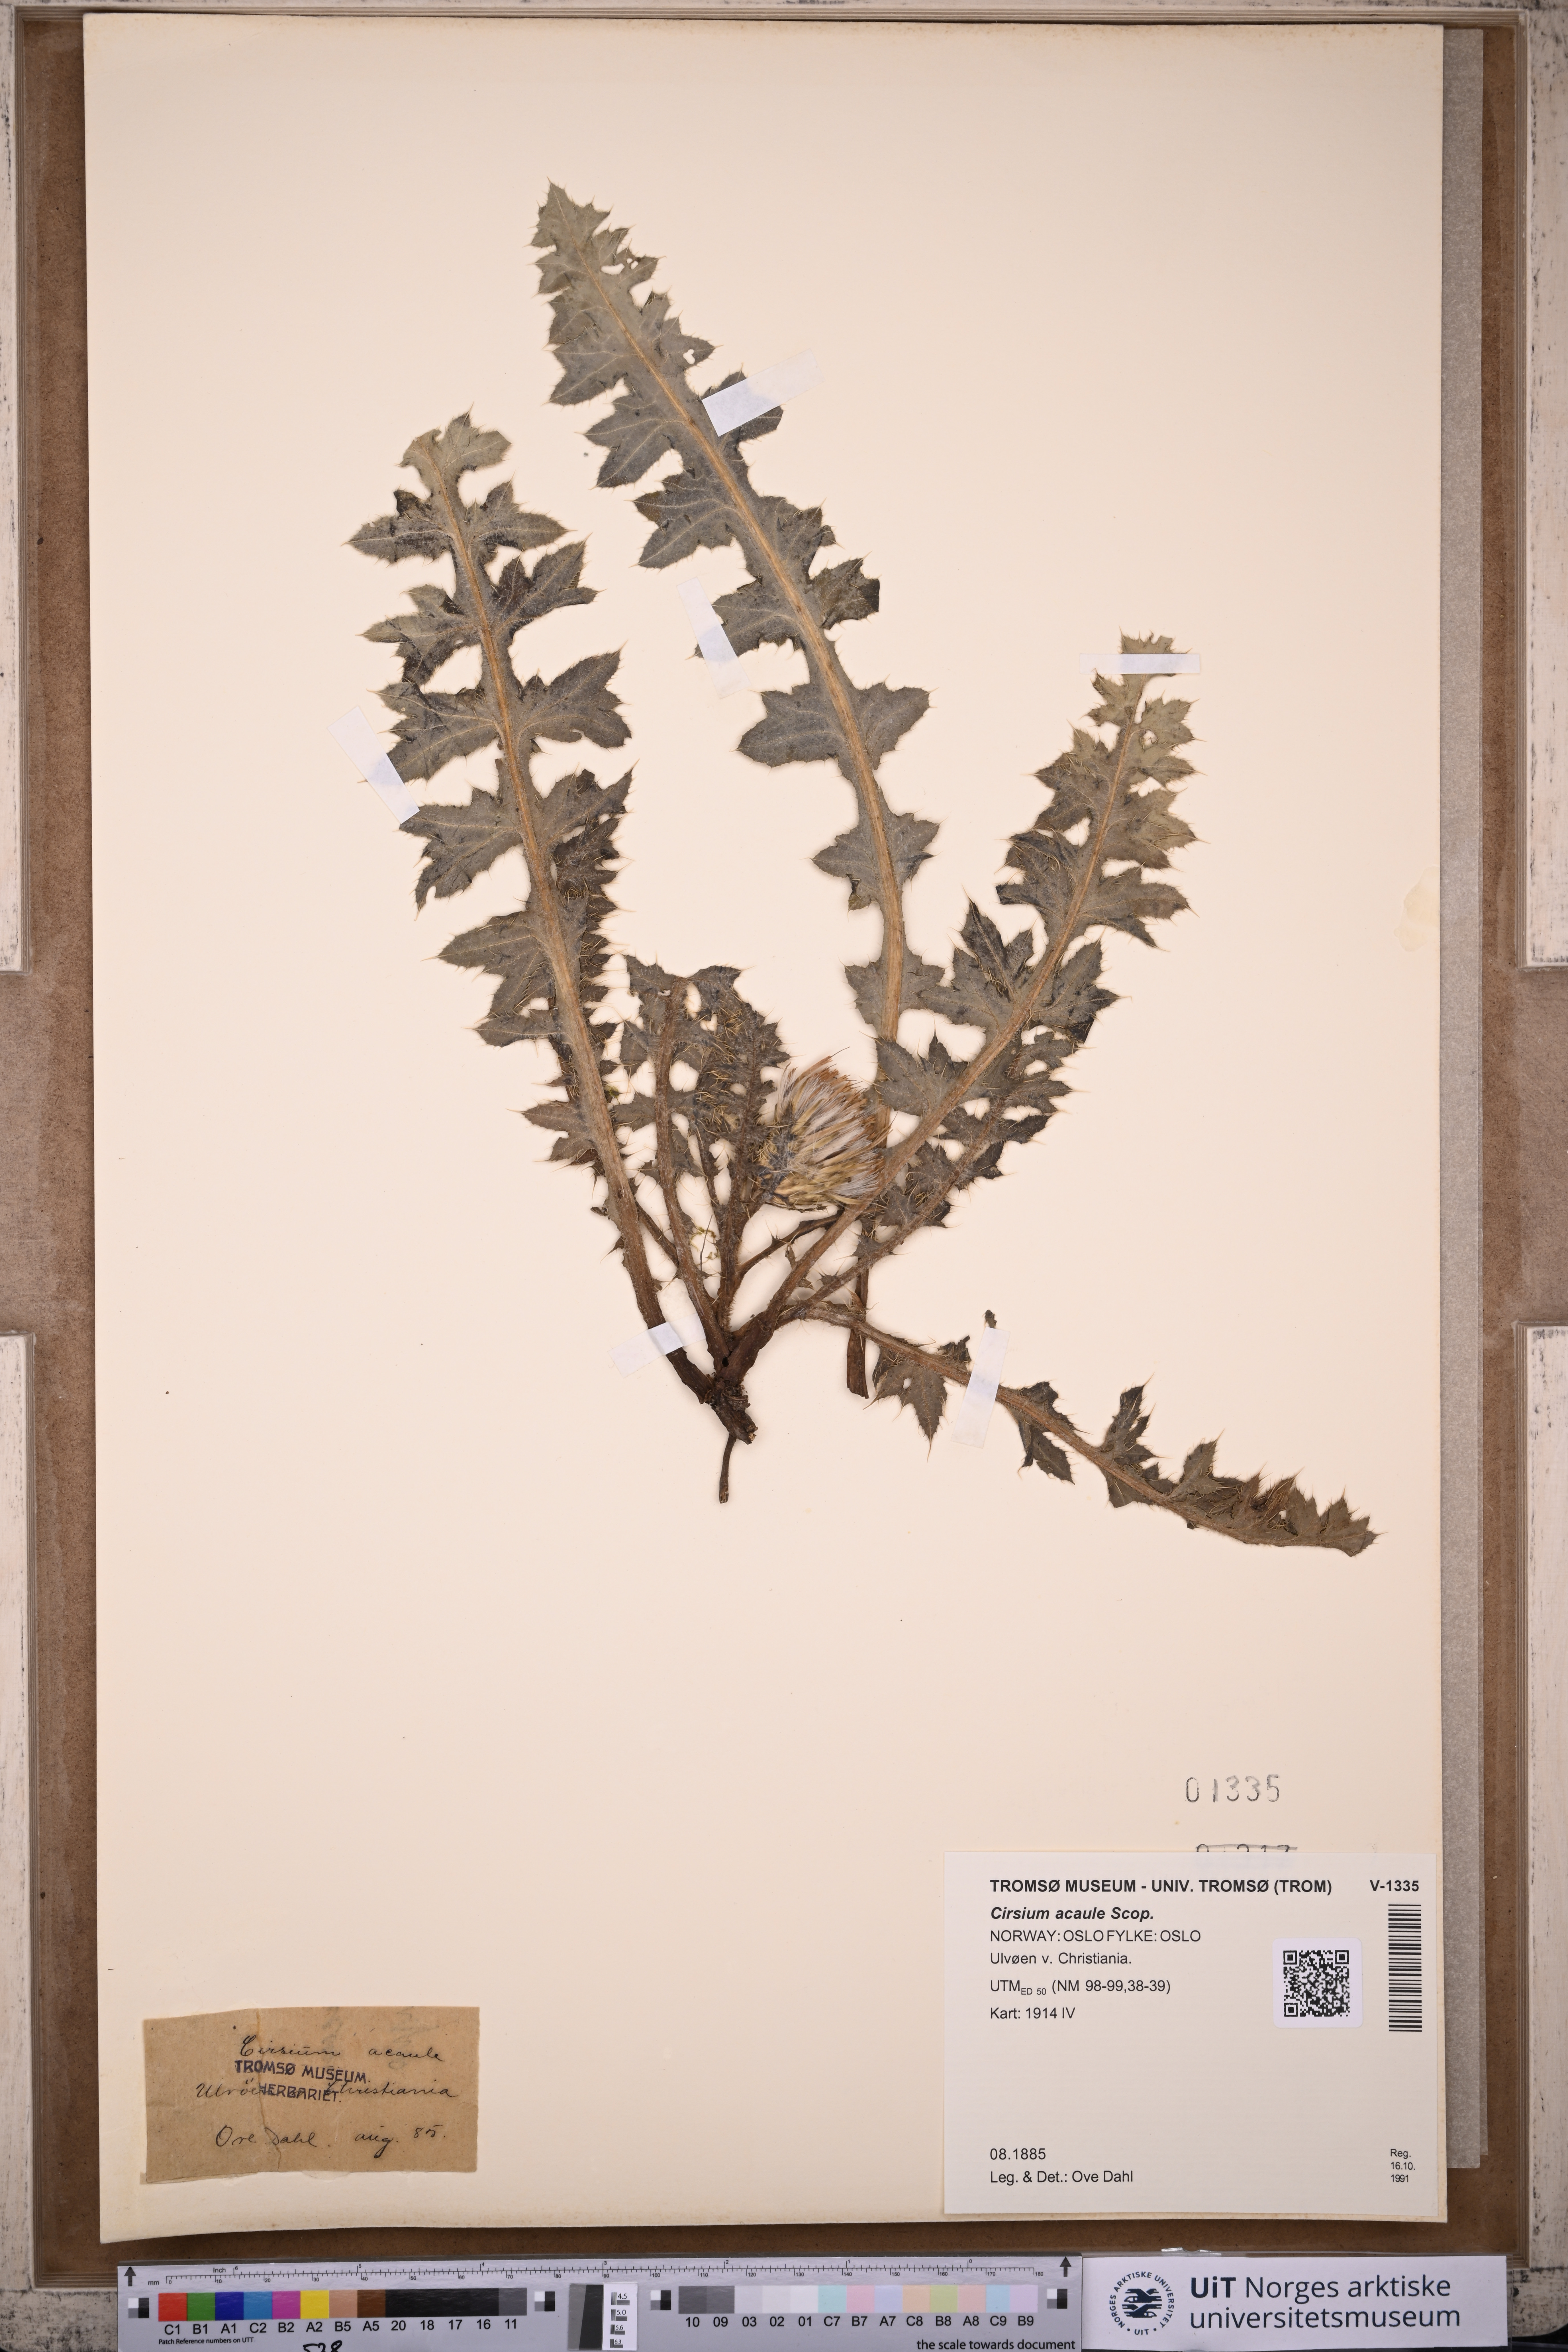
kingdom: Plantae
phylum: Tracheophyta
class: Magnoliopsida
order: Asterales
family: Asteraceae
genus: Cirsium
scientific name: Cirsium acaulon
